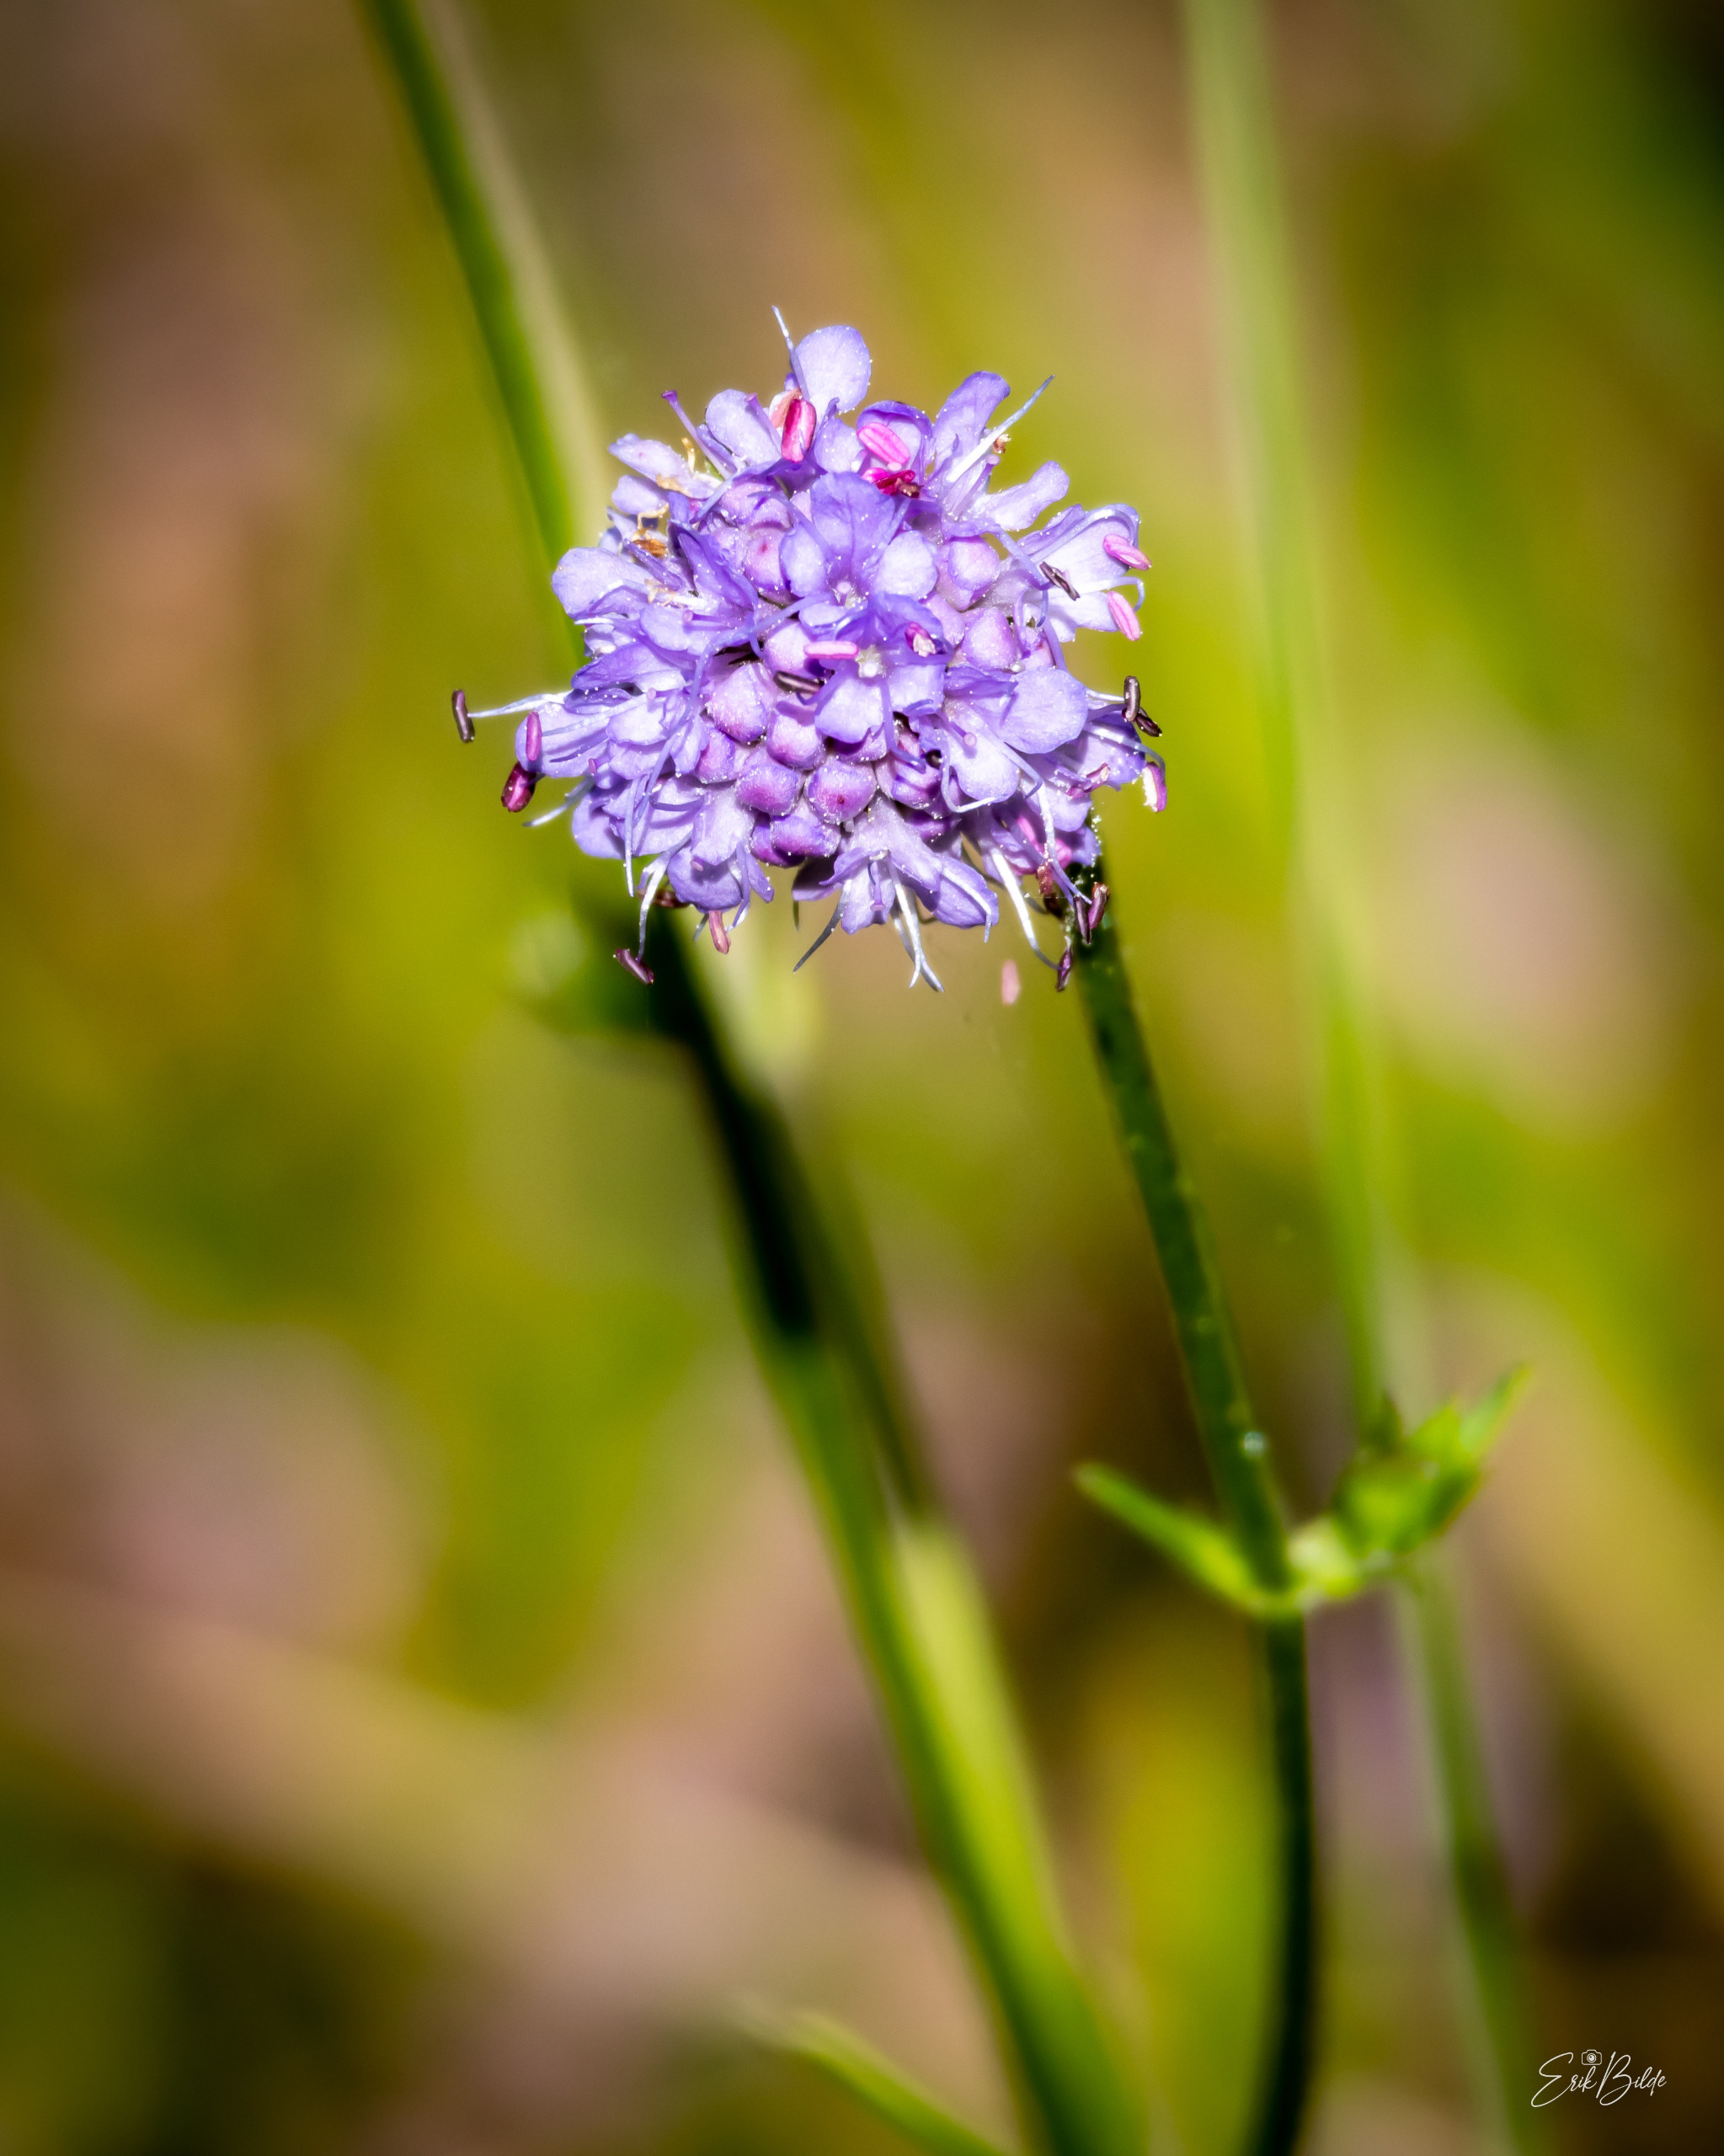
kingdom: Plantae
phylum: Tracheophyta
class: Magnoliopsida
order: Dipsacales
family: Caprifoliaceae
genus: Succisa
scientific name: Succisa pratensis
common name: Djævelsbid
